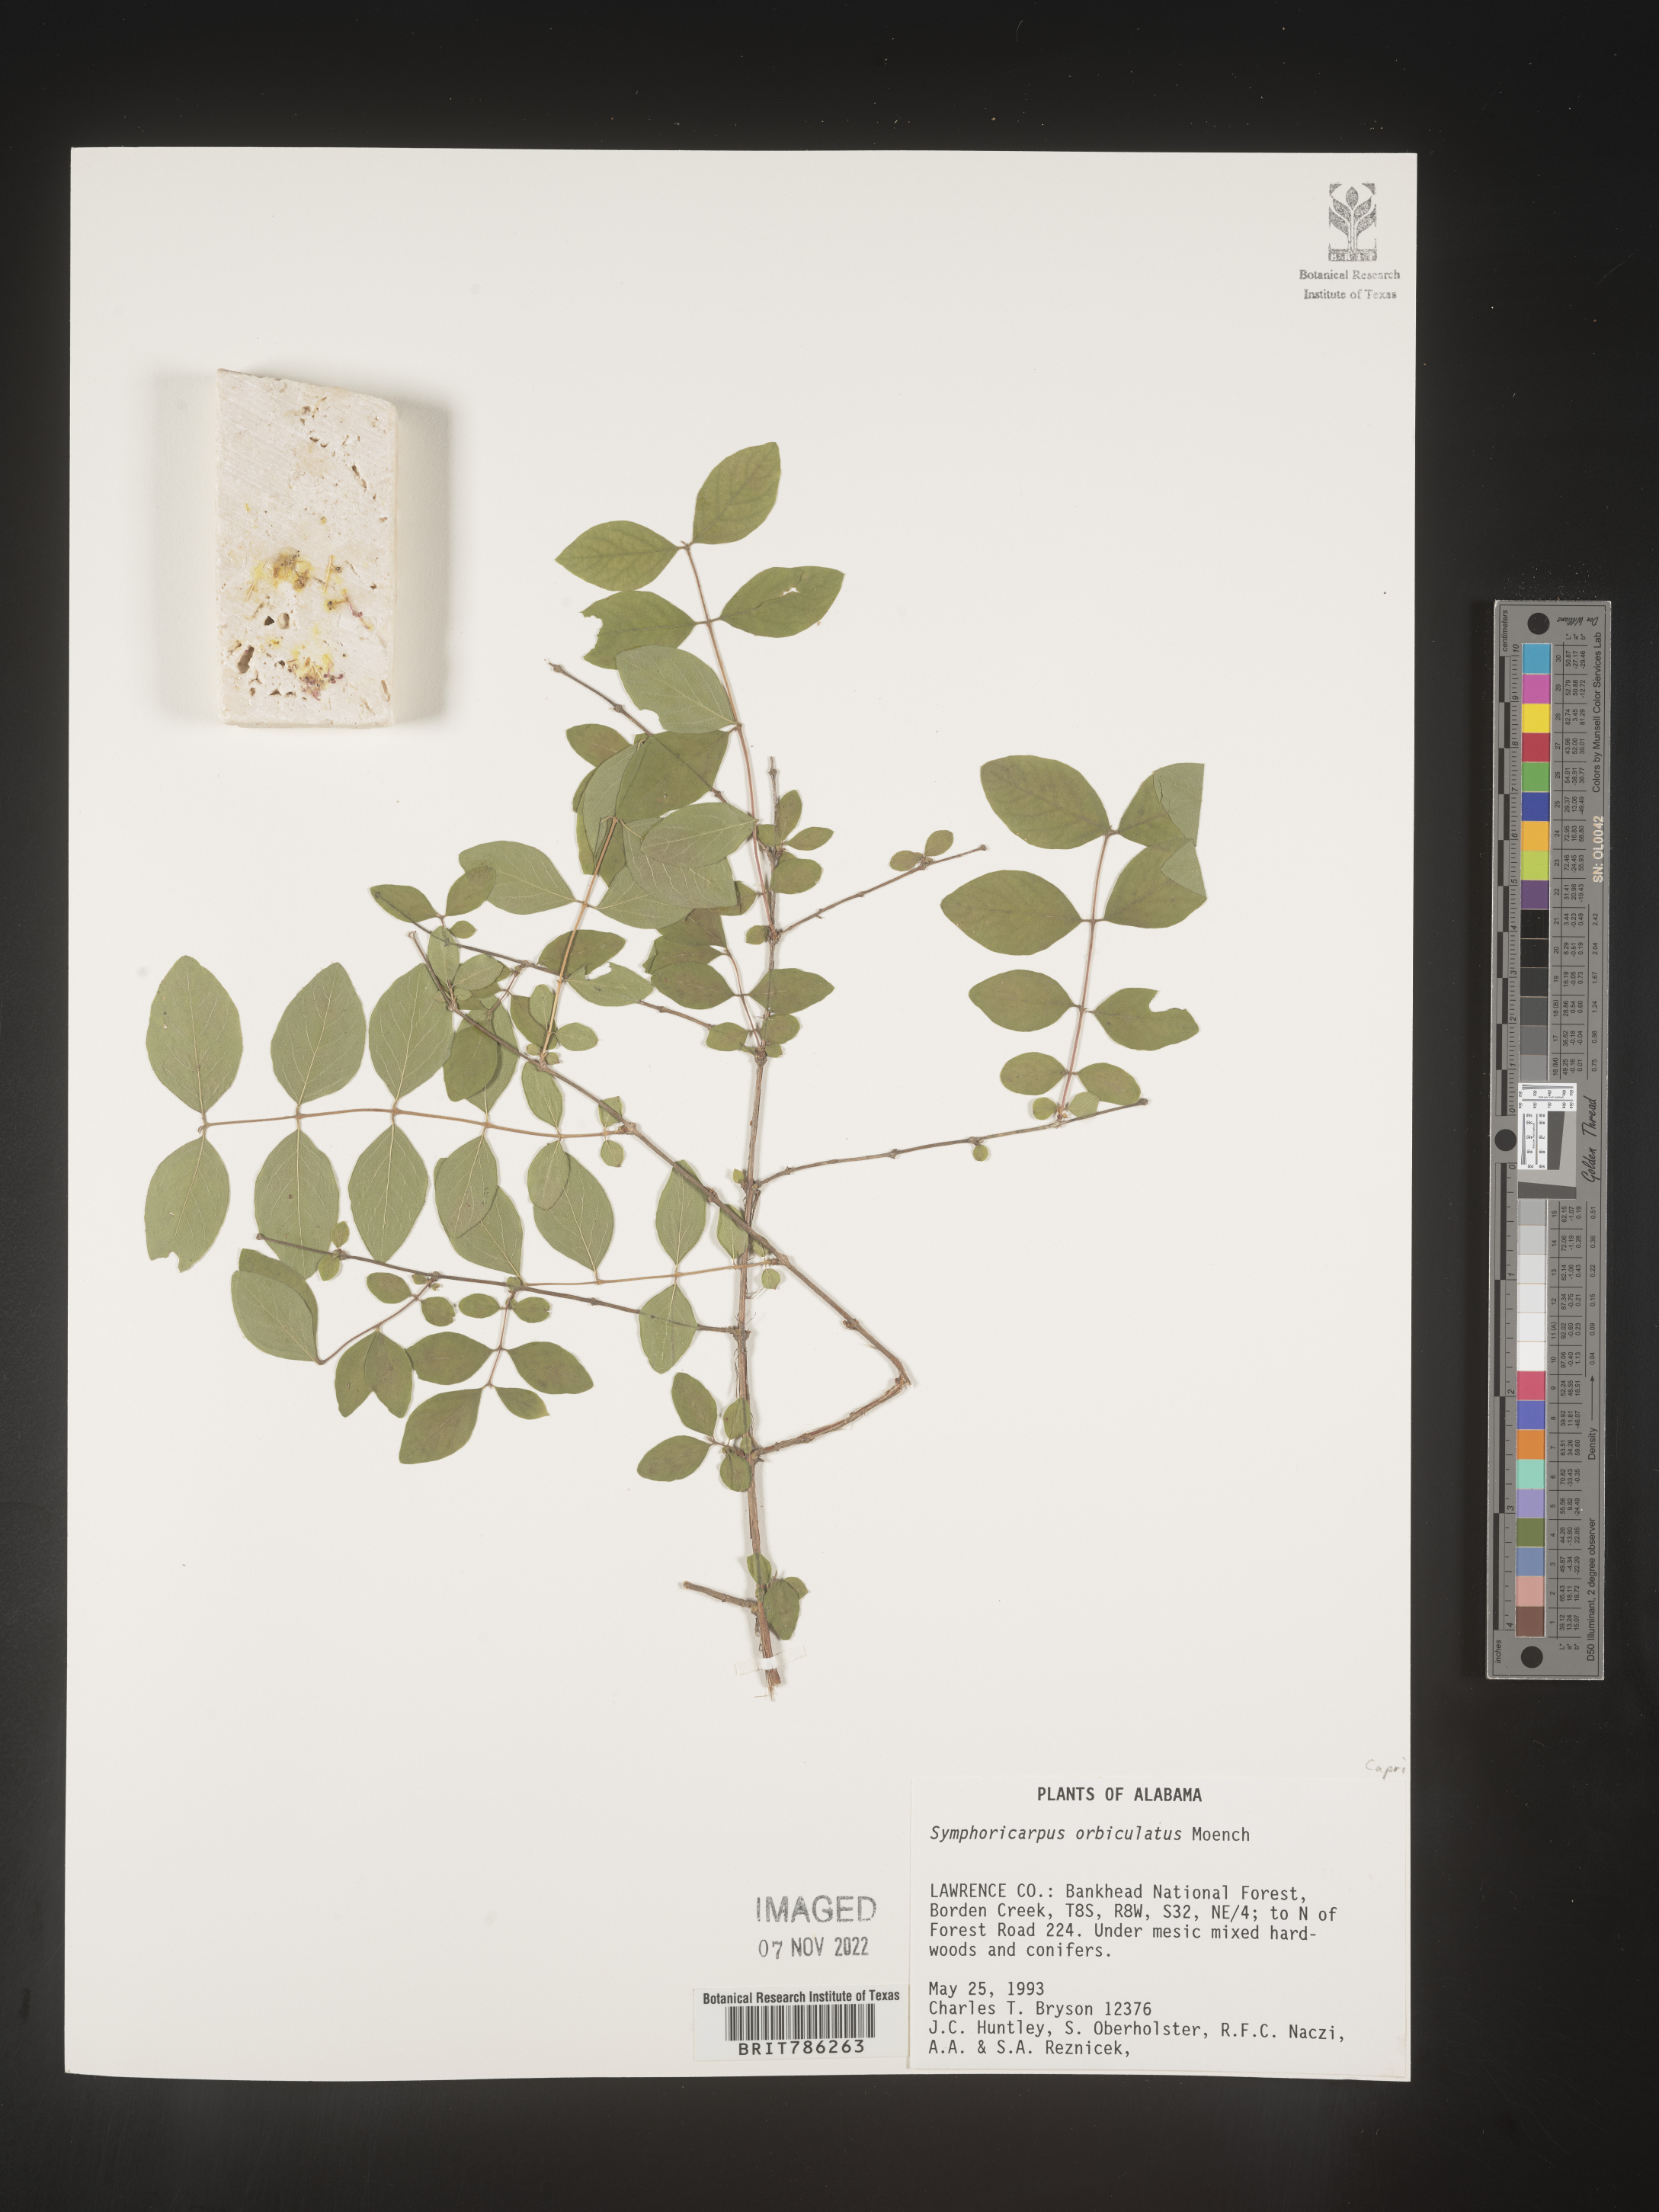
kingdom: Plantae
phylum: Tracheophyta
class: Magnoliopsida
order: Dipsacales
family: Caprifoliaceae
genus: Symphoricarpos
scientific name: Symphoricarpos orbiculatus
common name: Coralberry
